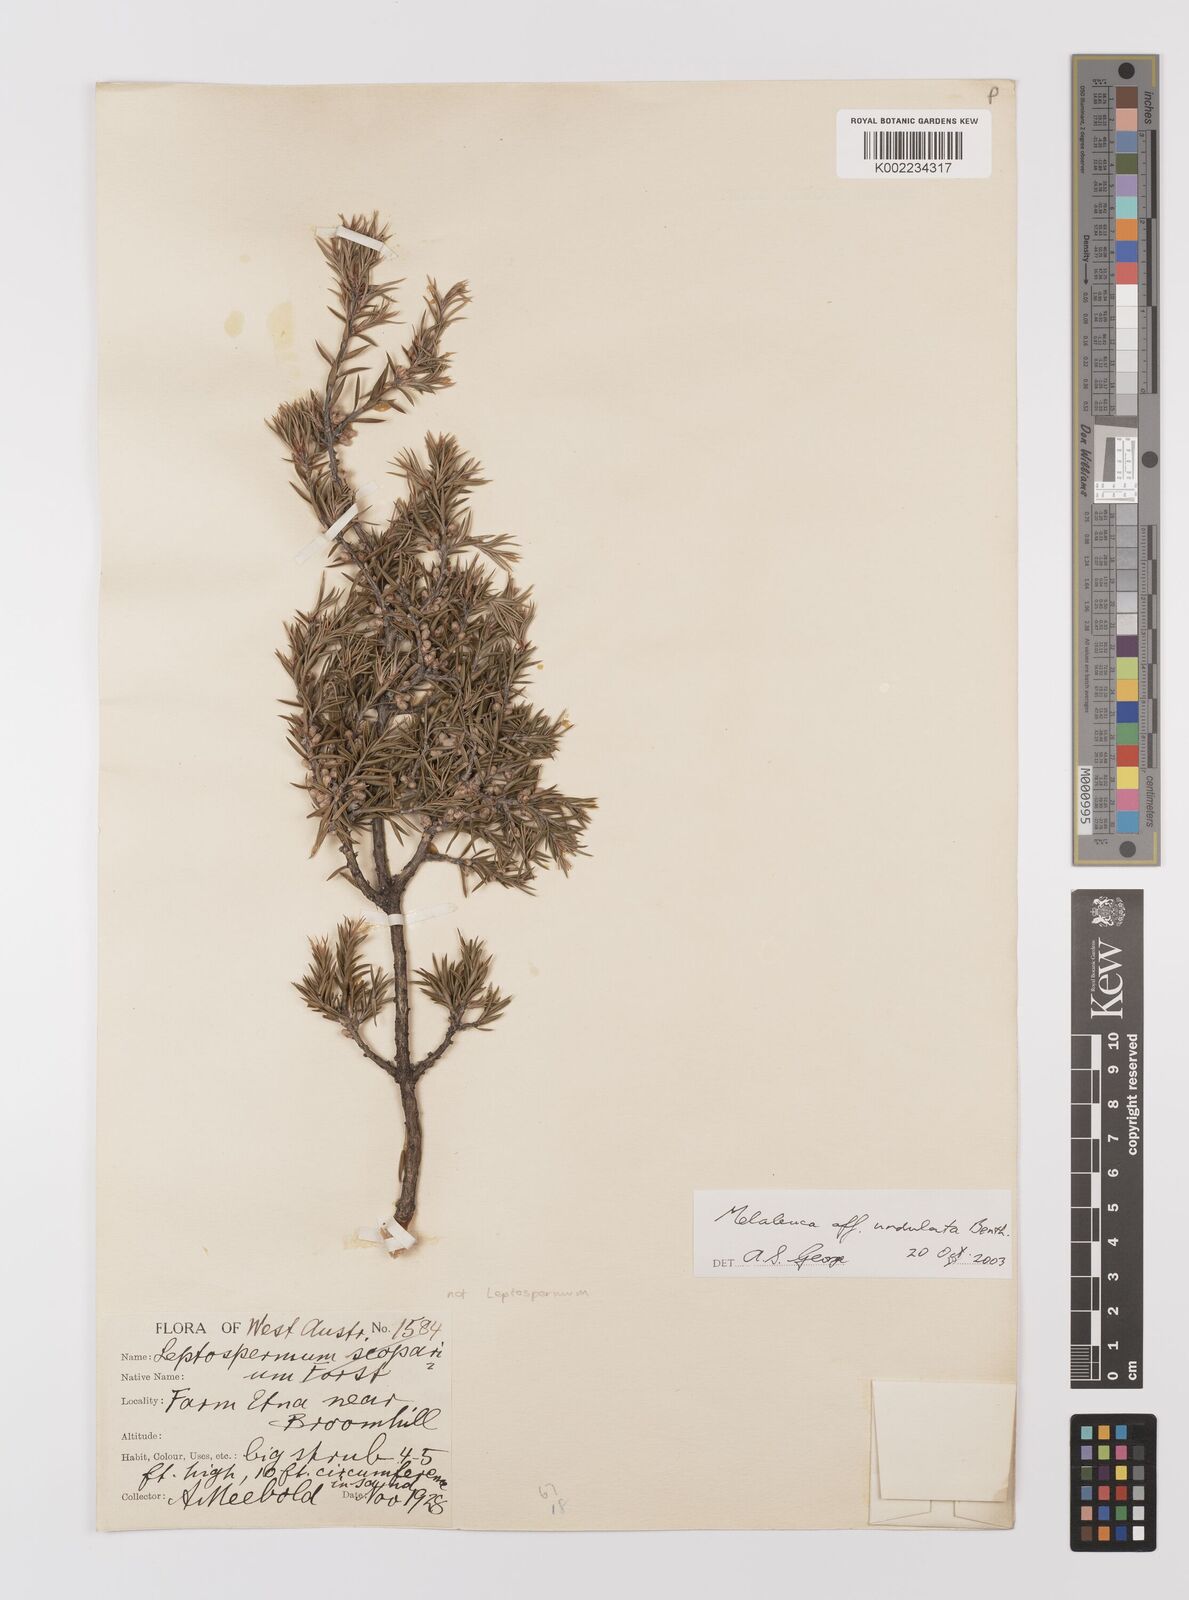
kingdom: Plantae
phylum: Tracheophyta
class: Magnoliopsida
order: Myrtales
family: Myrtaceae
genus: Melaleuca
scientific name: Melaleuca undulata
